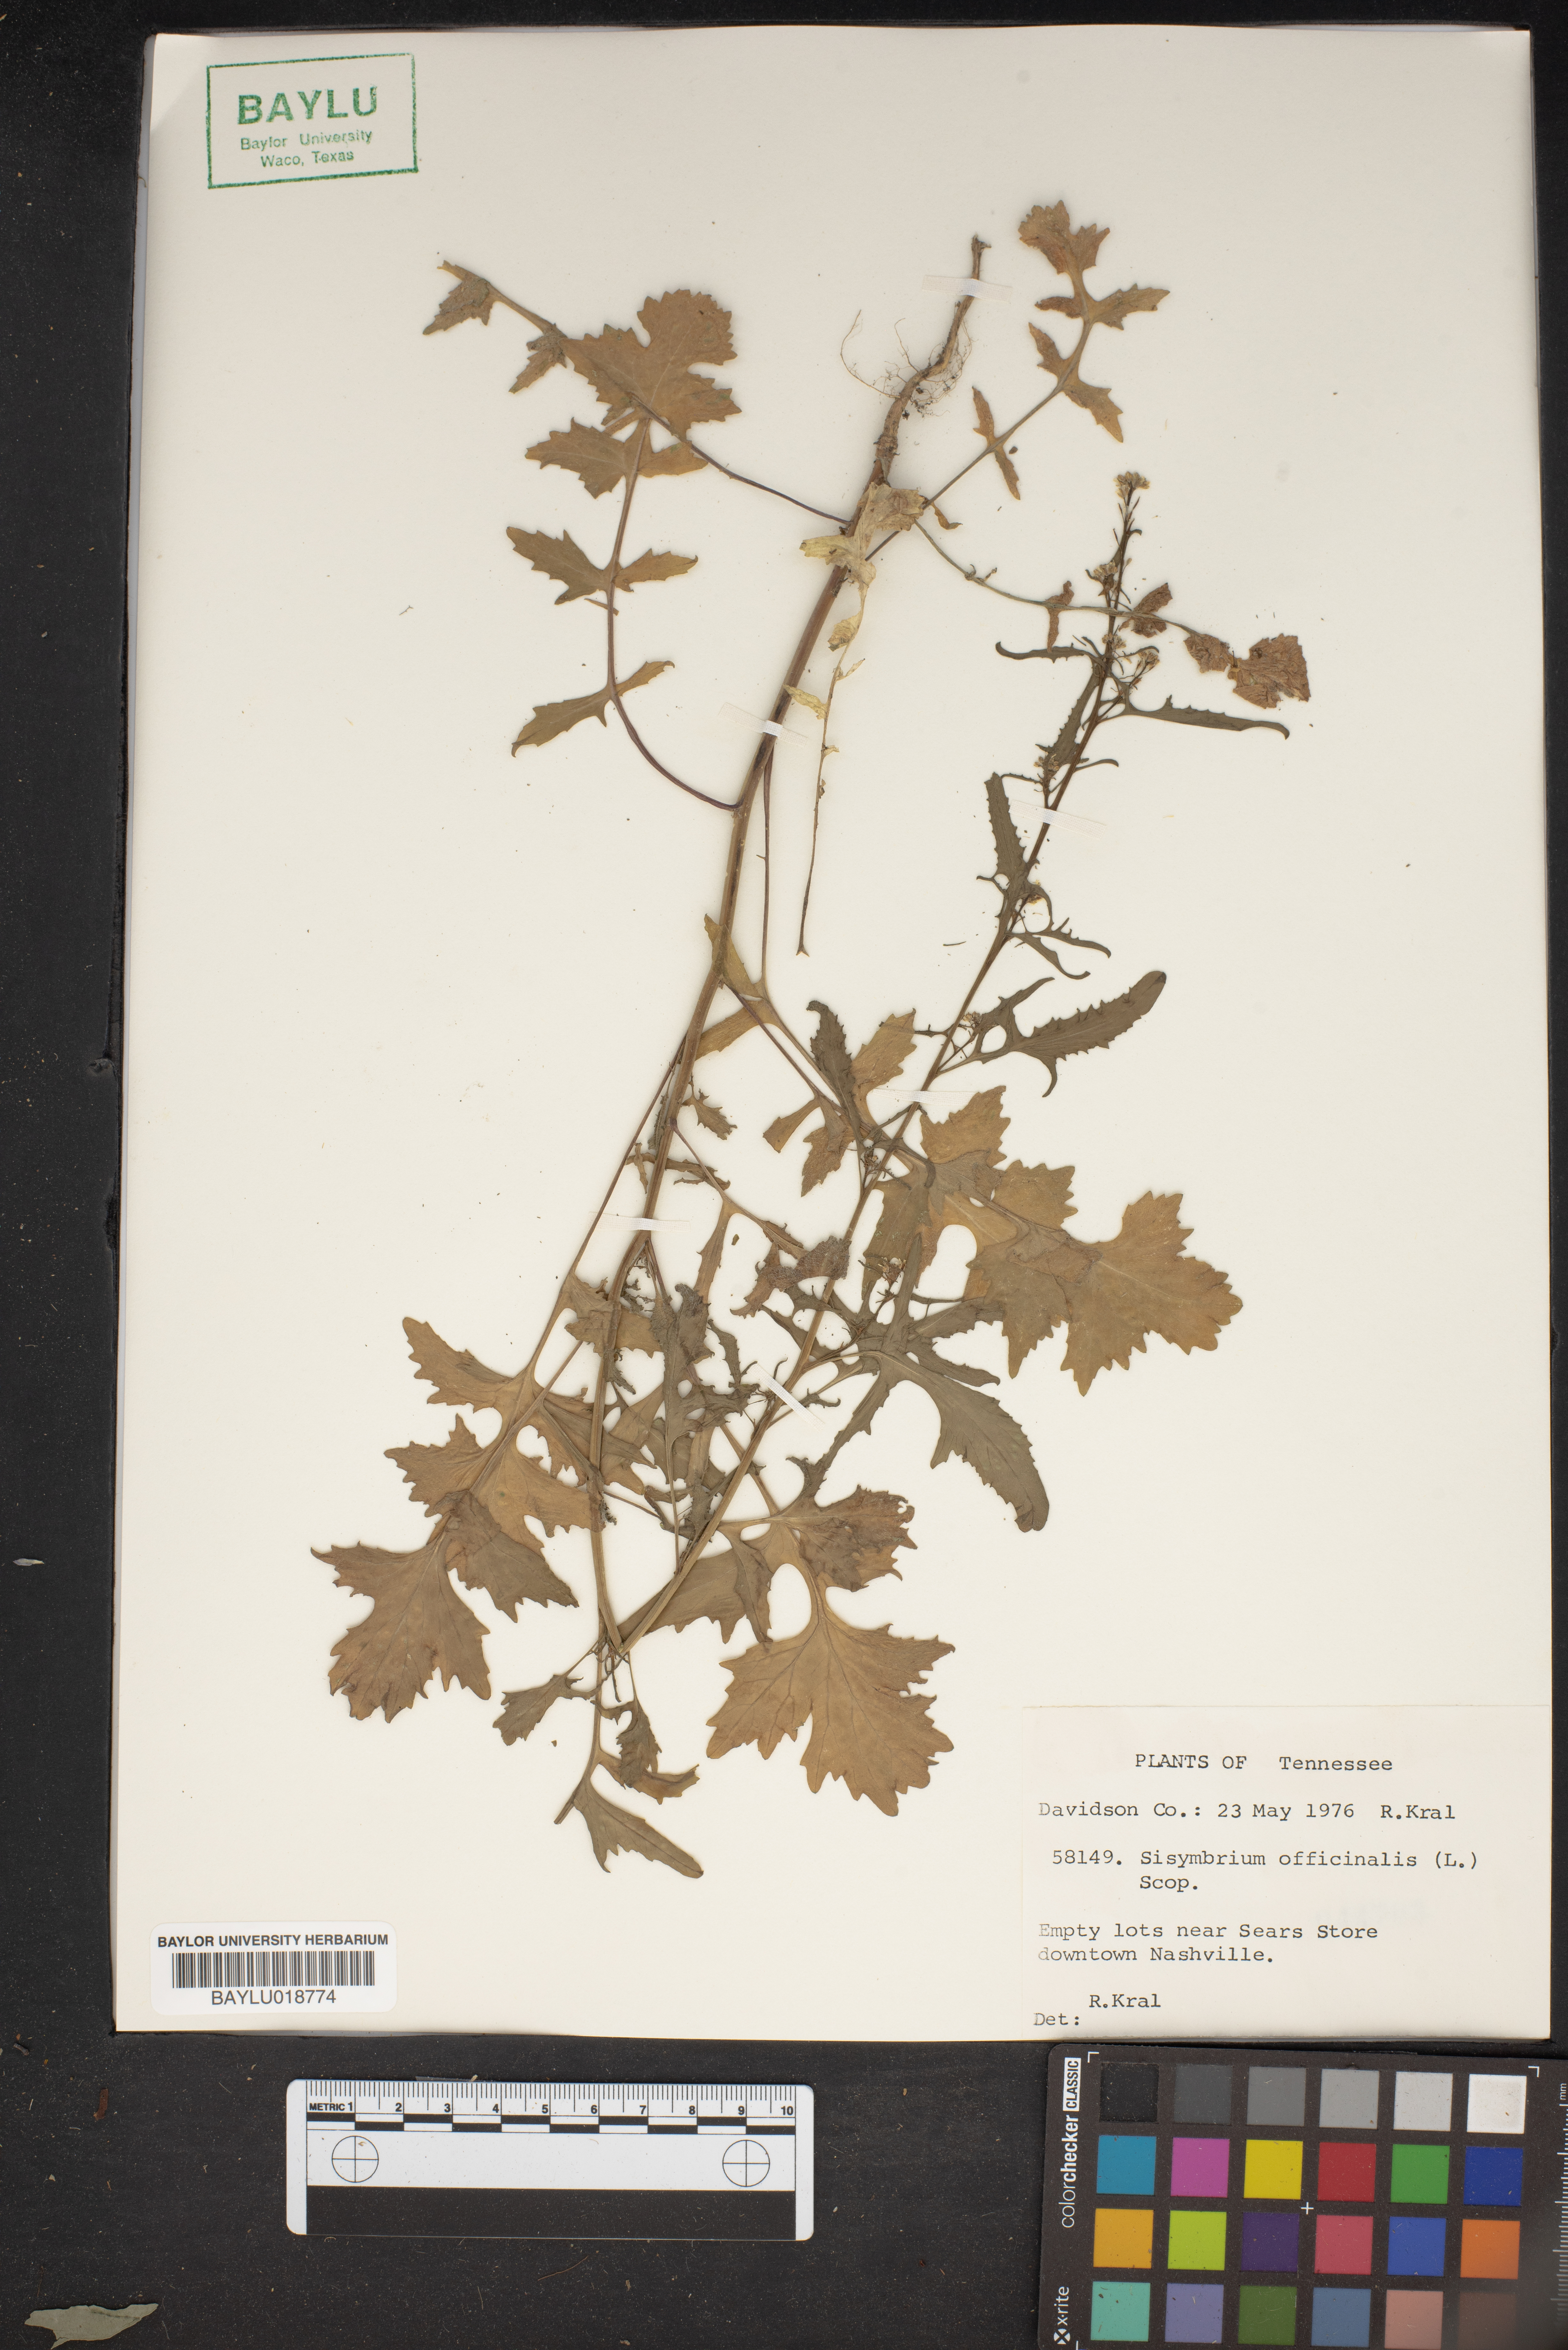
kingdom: Plantae
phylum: Tracheophyta
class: Magnoliopsida
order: Brassicales
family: Brassicaceae
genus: Sisymbrium
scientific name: Sisymbrium officinale
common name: Hedge mustard
